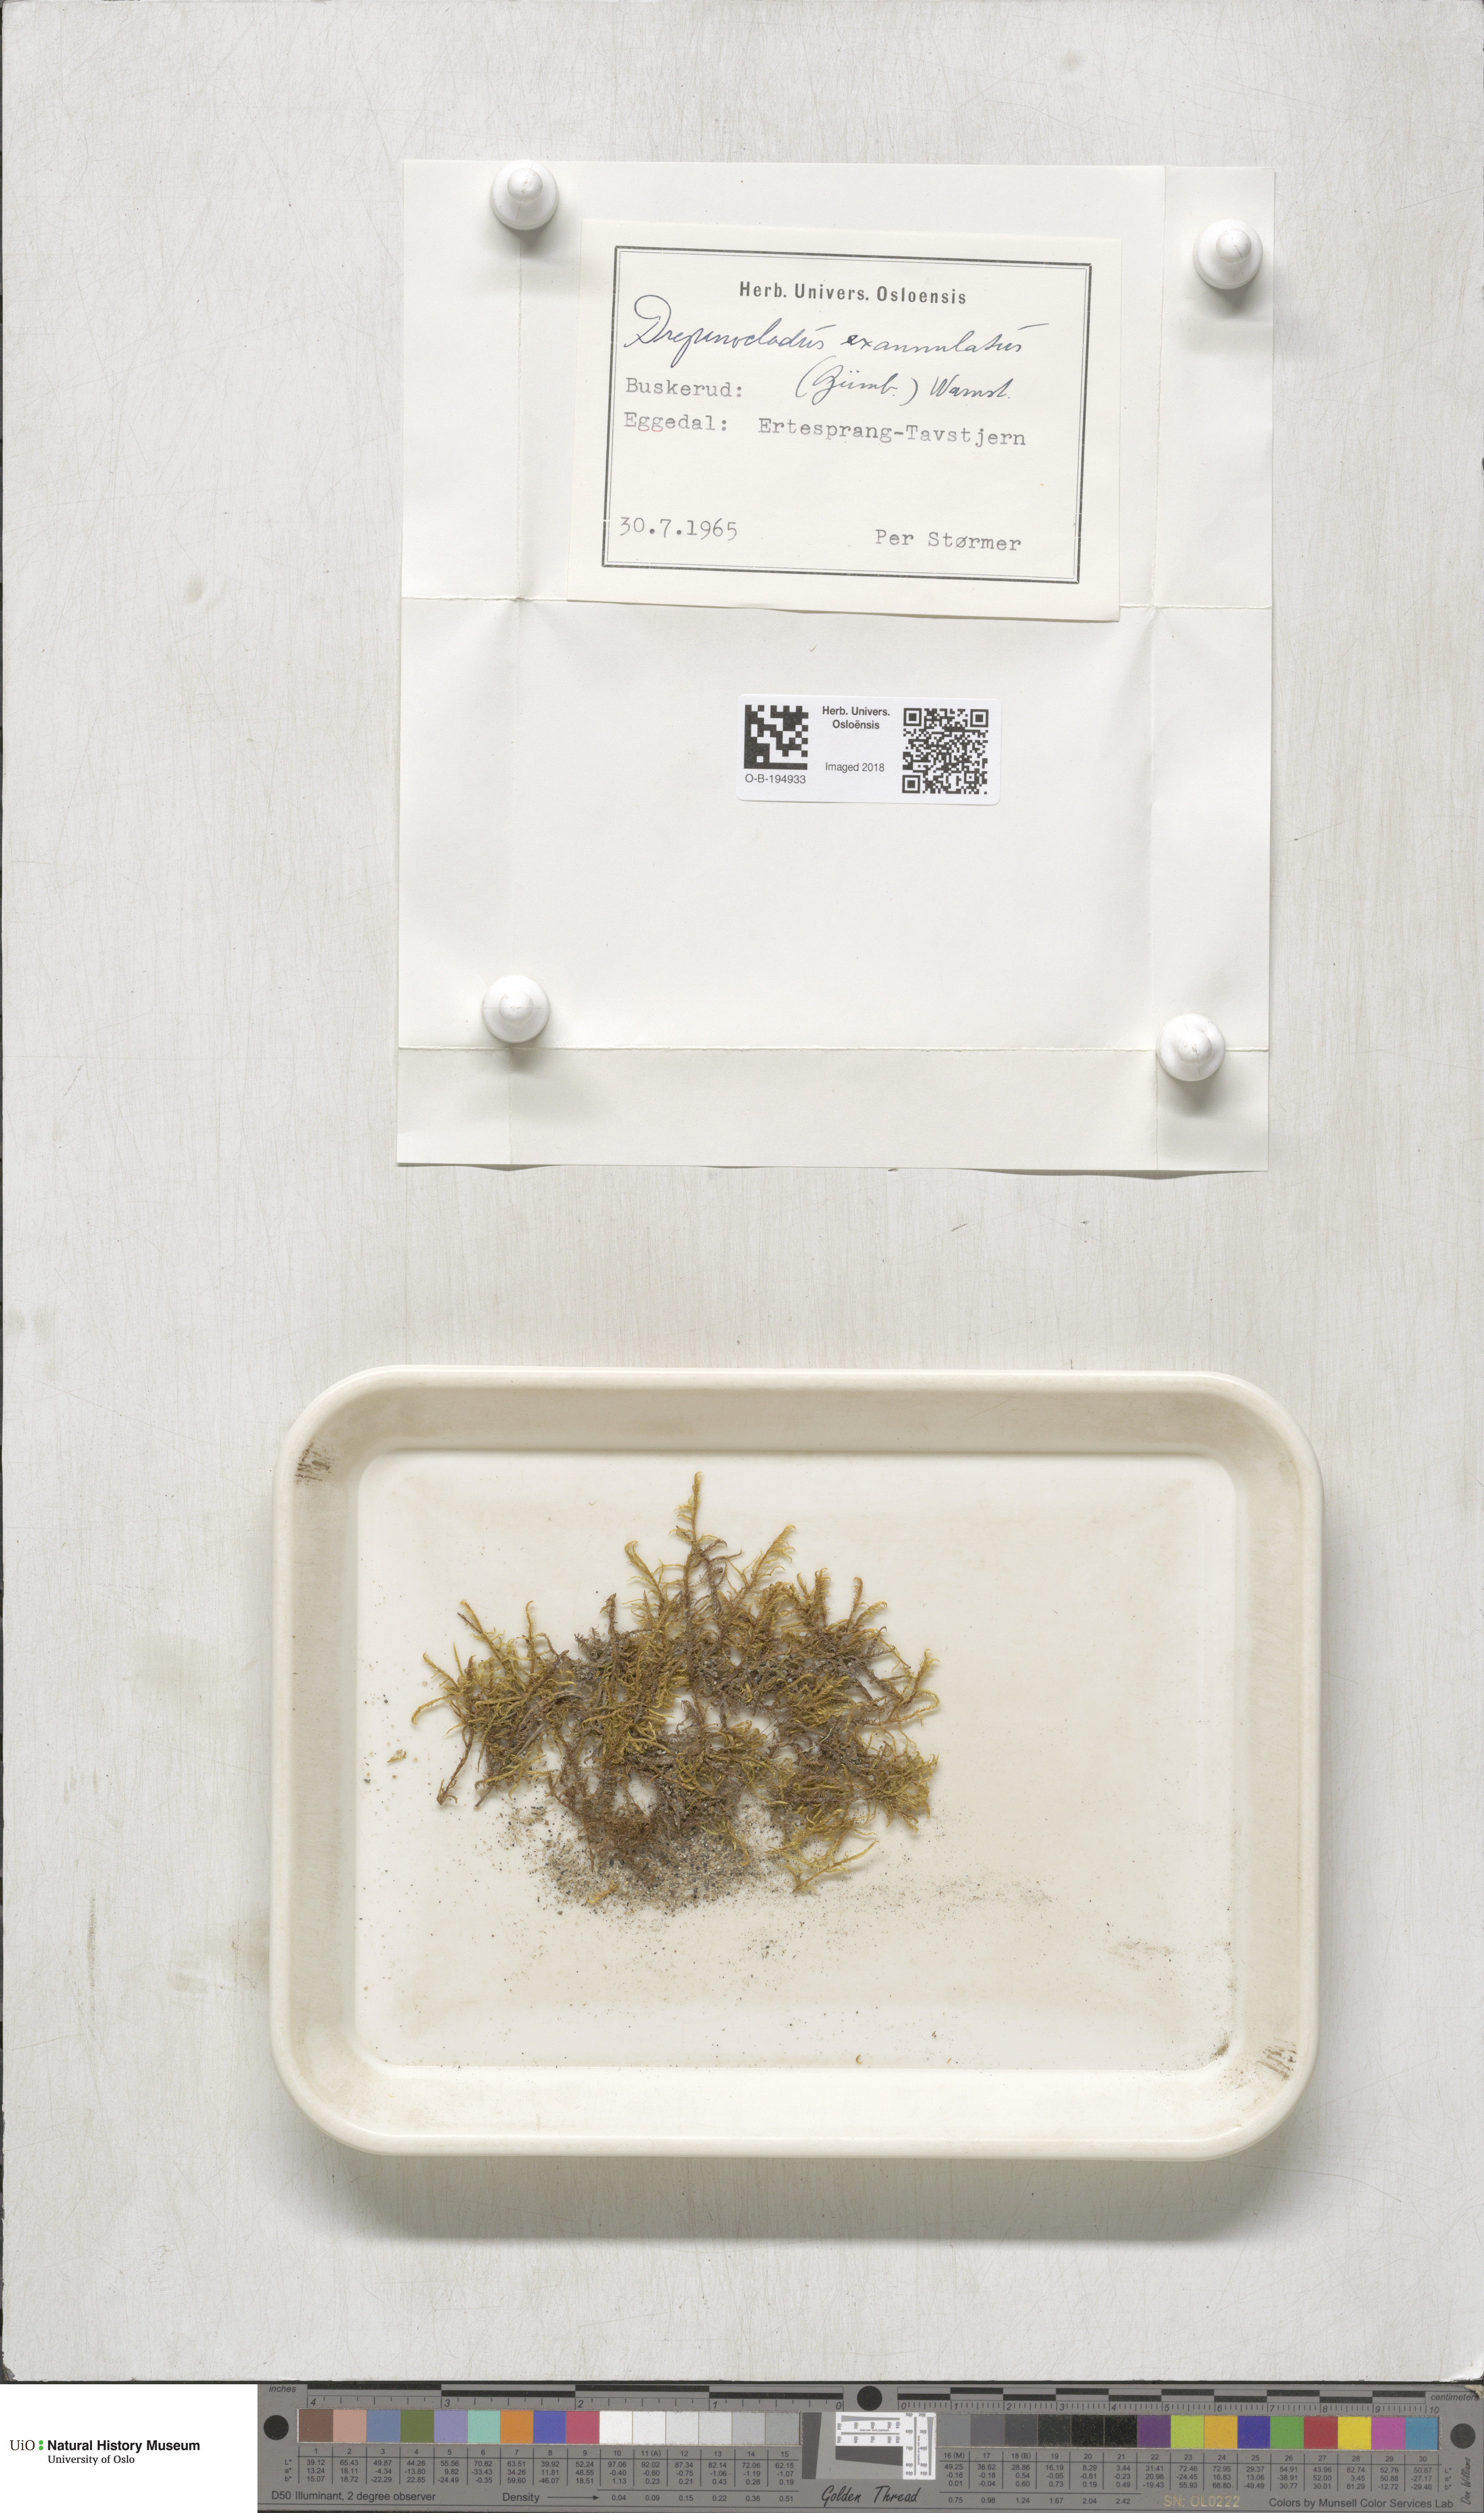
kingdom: Plantae
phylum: Bryophyta
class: Bryopsida
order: Hypnales
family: Calliergonaceae
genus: Sarmentypnum
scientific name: Sarmentypnum exannulatum
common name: Ringless spoon moss
